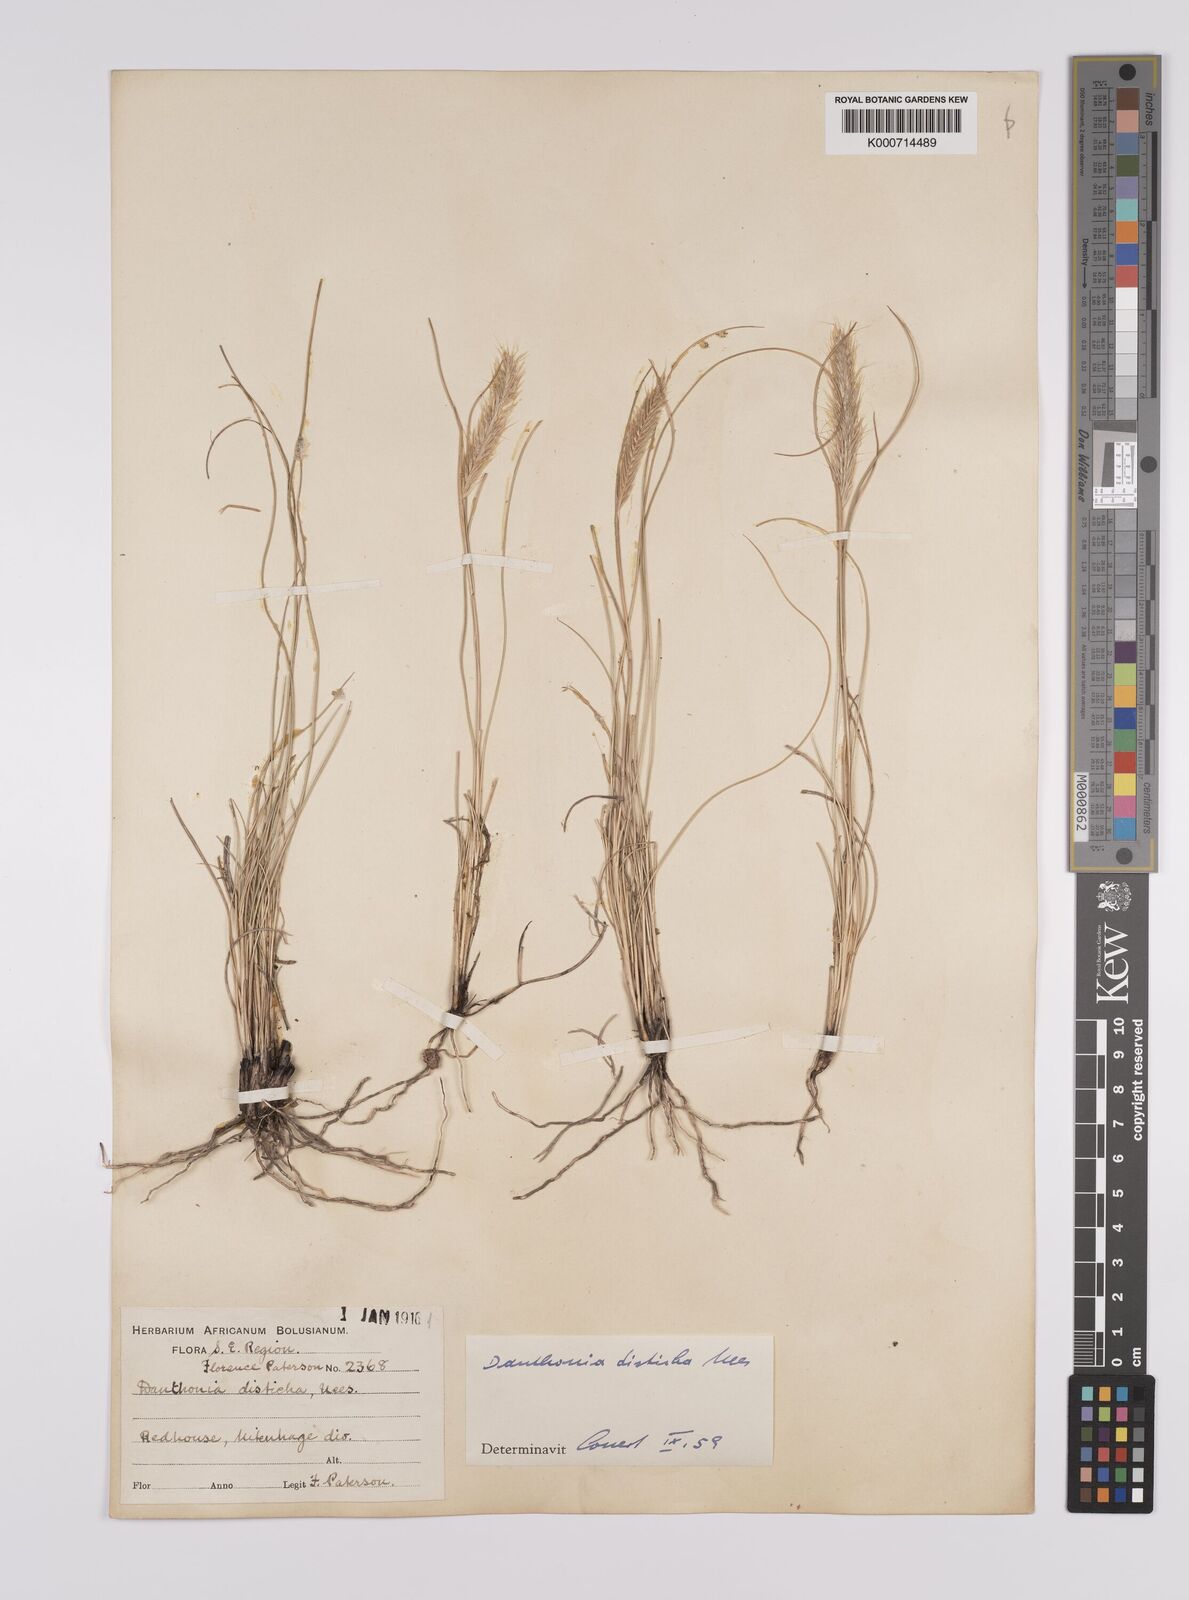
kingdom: Plantae
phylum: Tracheophyta
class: Liliopsida
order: Poales
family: Poaceae
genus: Tenaxia
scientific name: Tenaxia disticha
